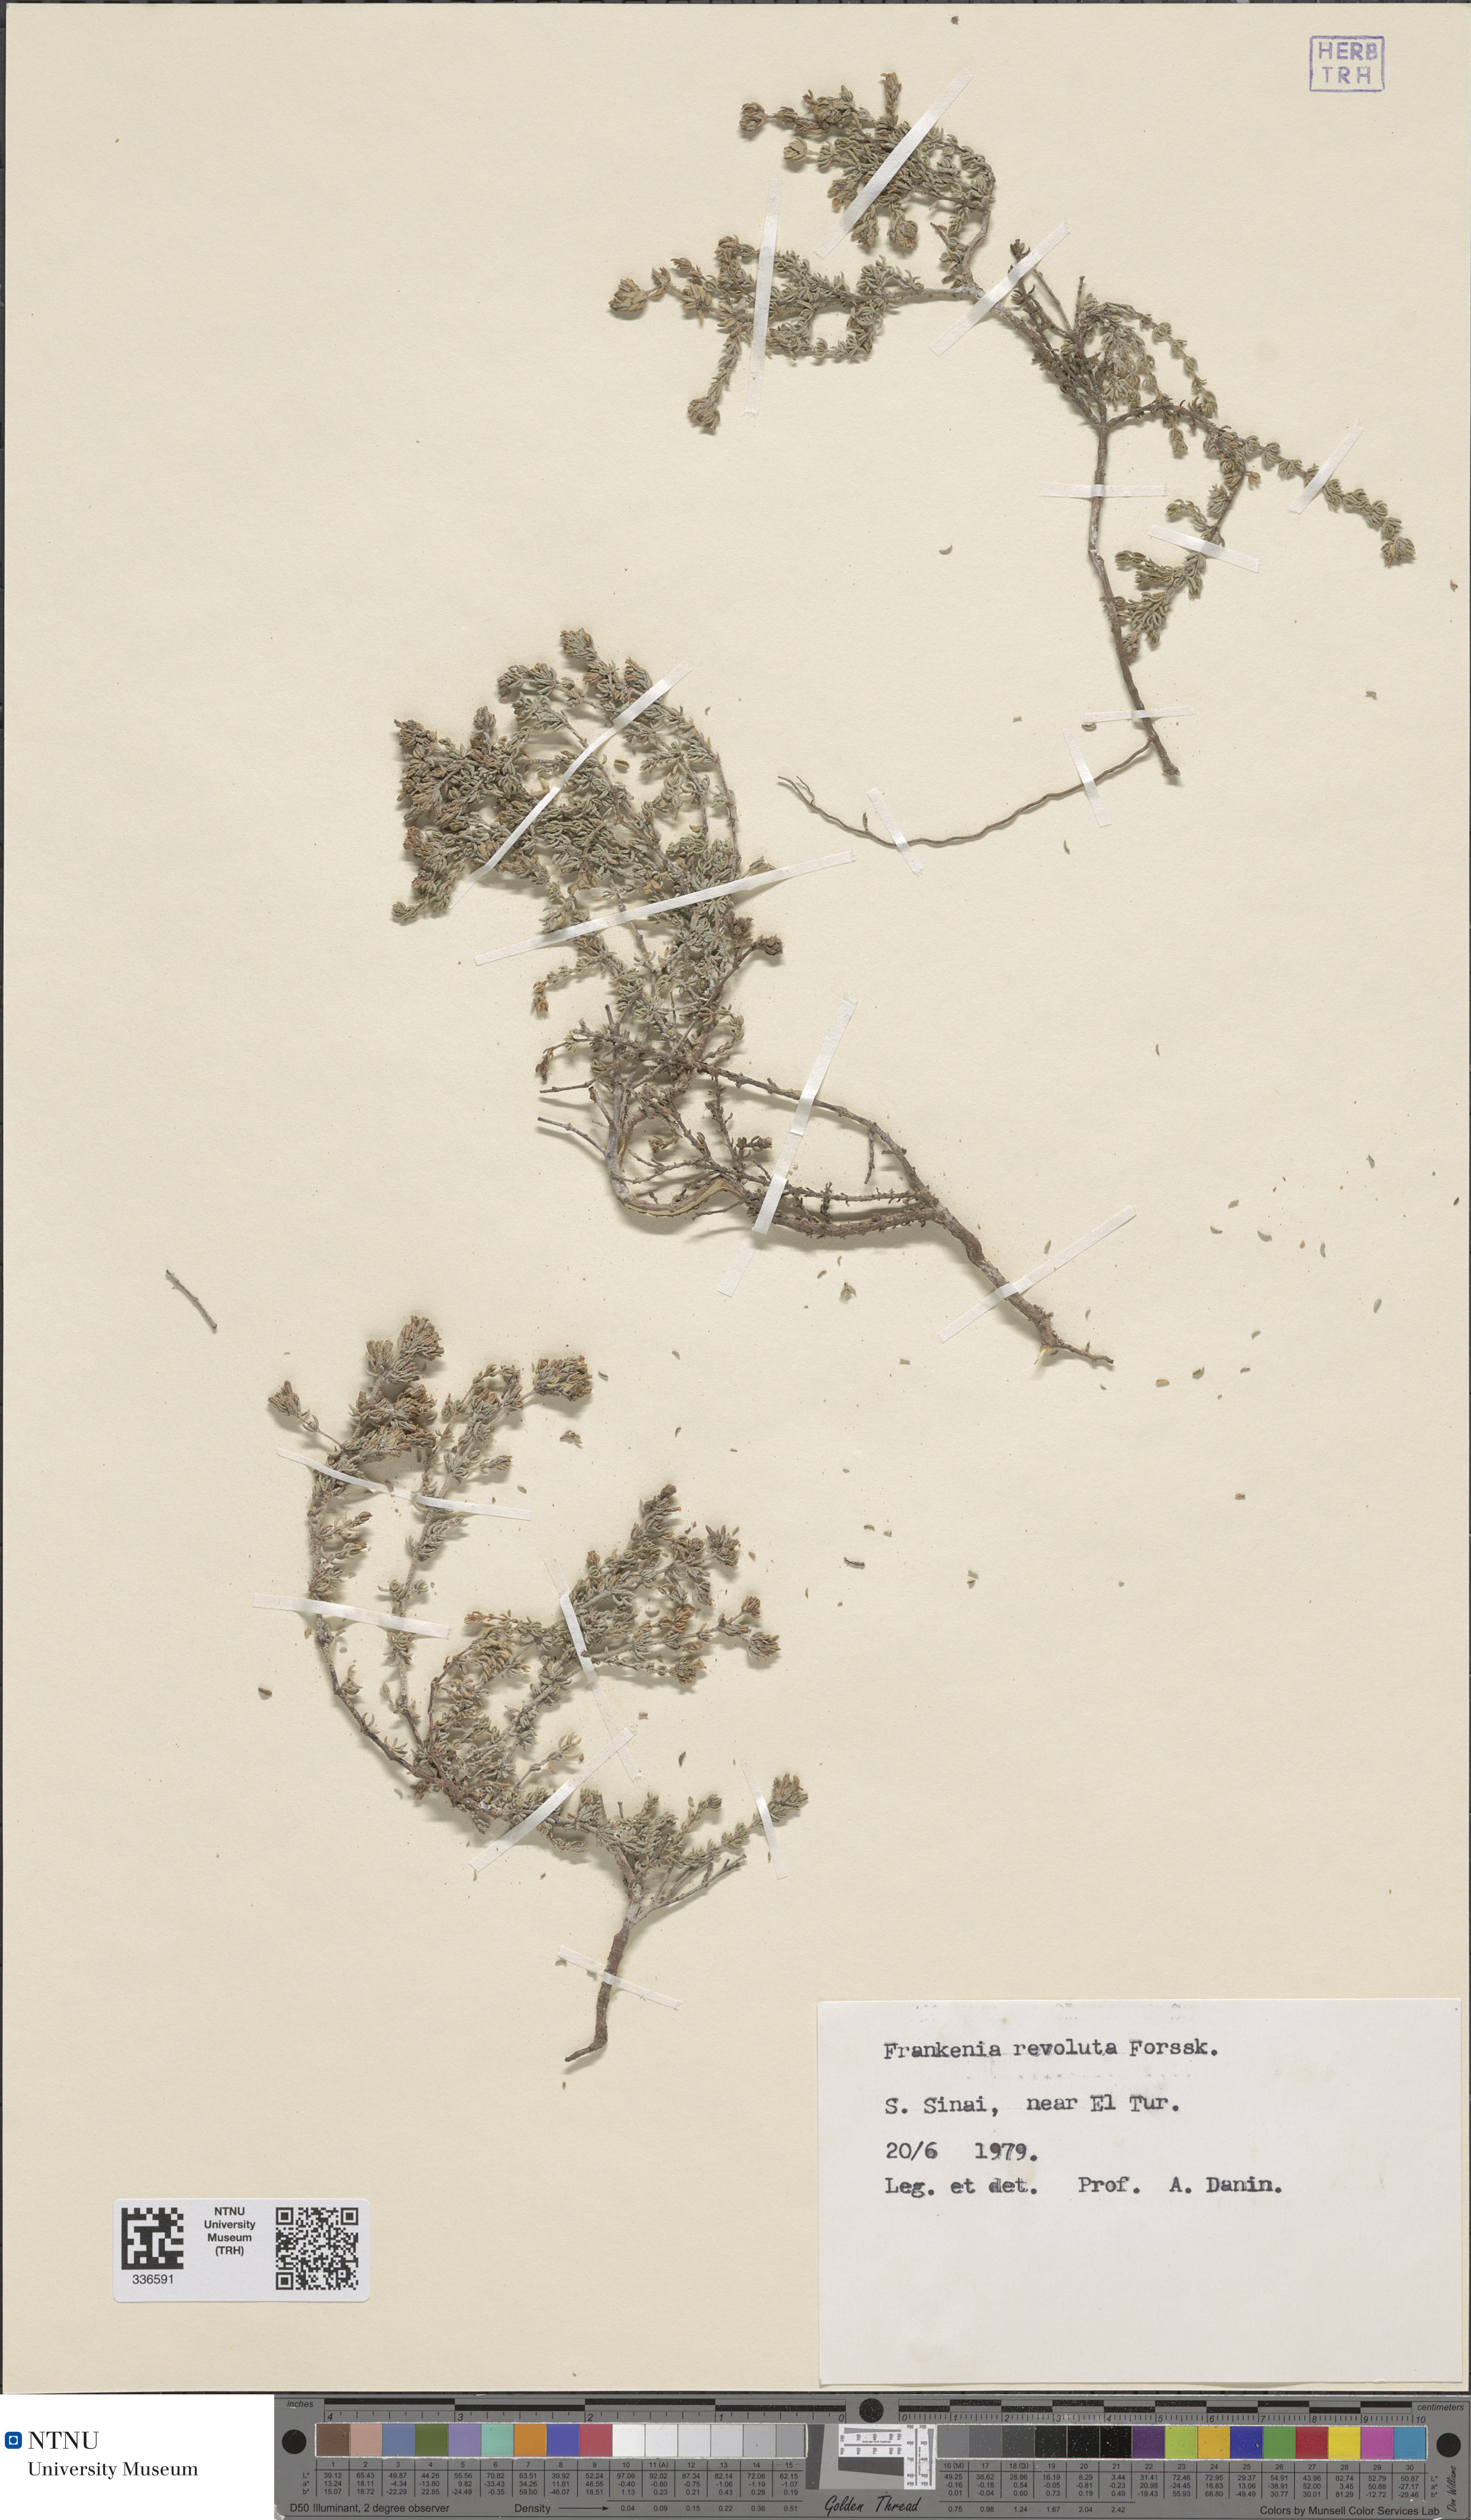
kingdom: Plantae
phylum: Tracheophyta
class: Magnoliopsida
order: Caryophyllales
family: Frankeniaceae
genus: Frankenia
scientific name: Frankenia hirsuta
